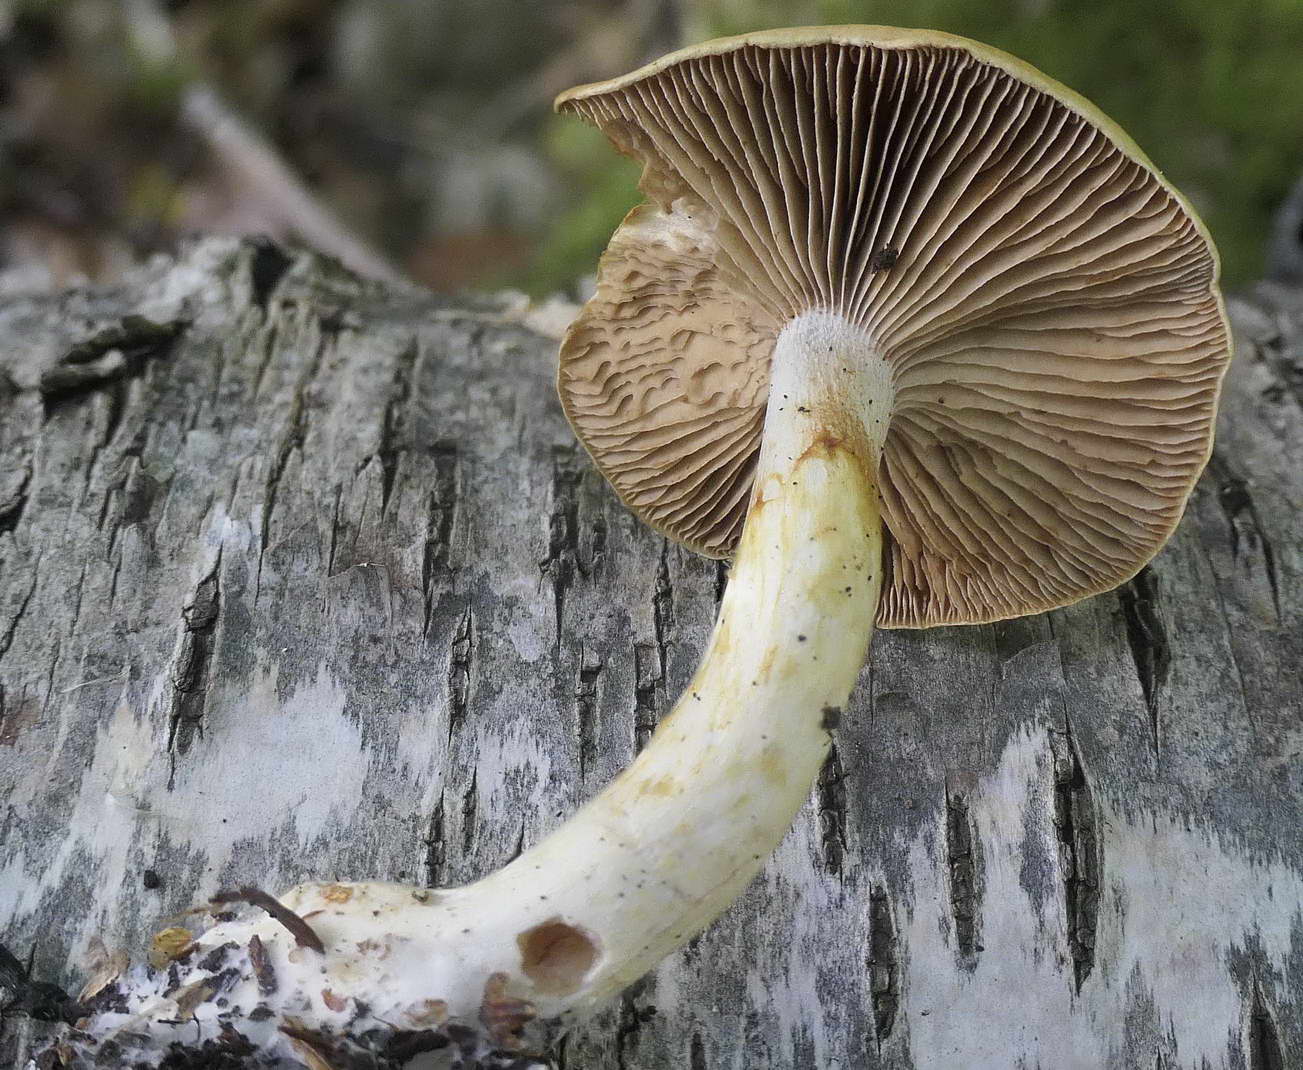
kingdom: Fungi
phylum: Basidiomycota
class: Agaricomycetes
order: Agaricales
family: Cortinariaceae
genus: Cortinarius
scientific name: Cortinarius delibutus
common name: gul slørhat
